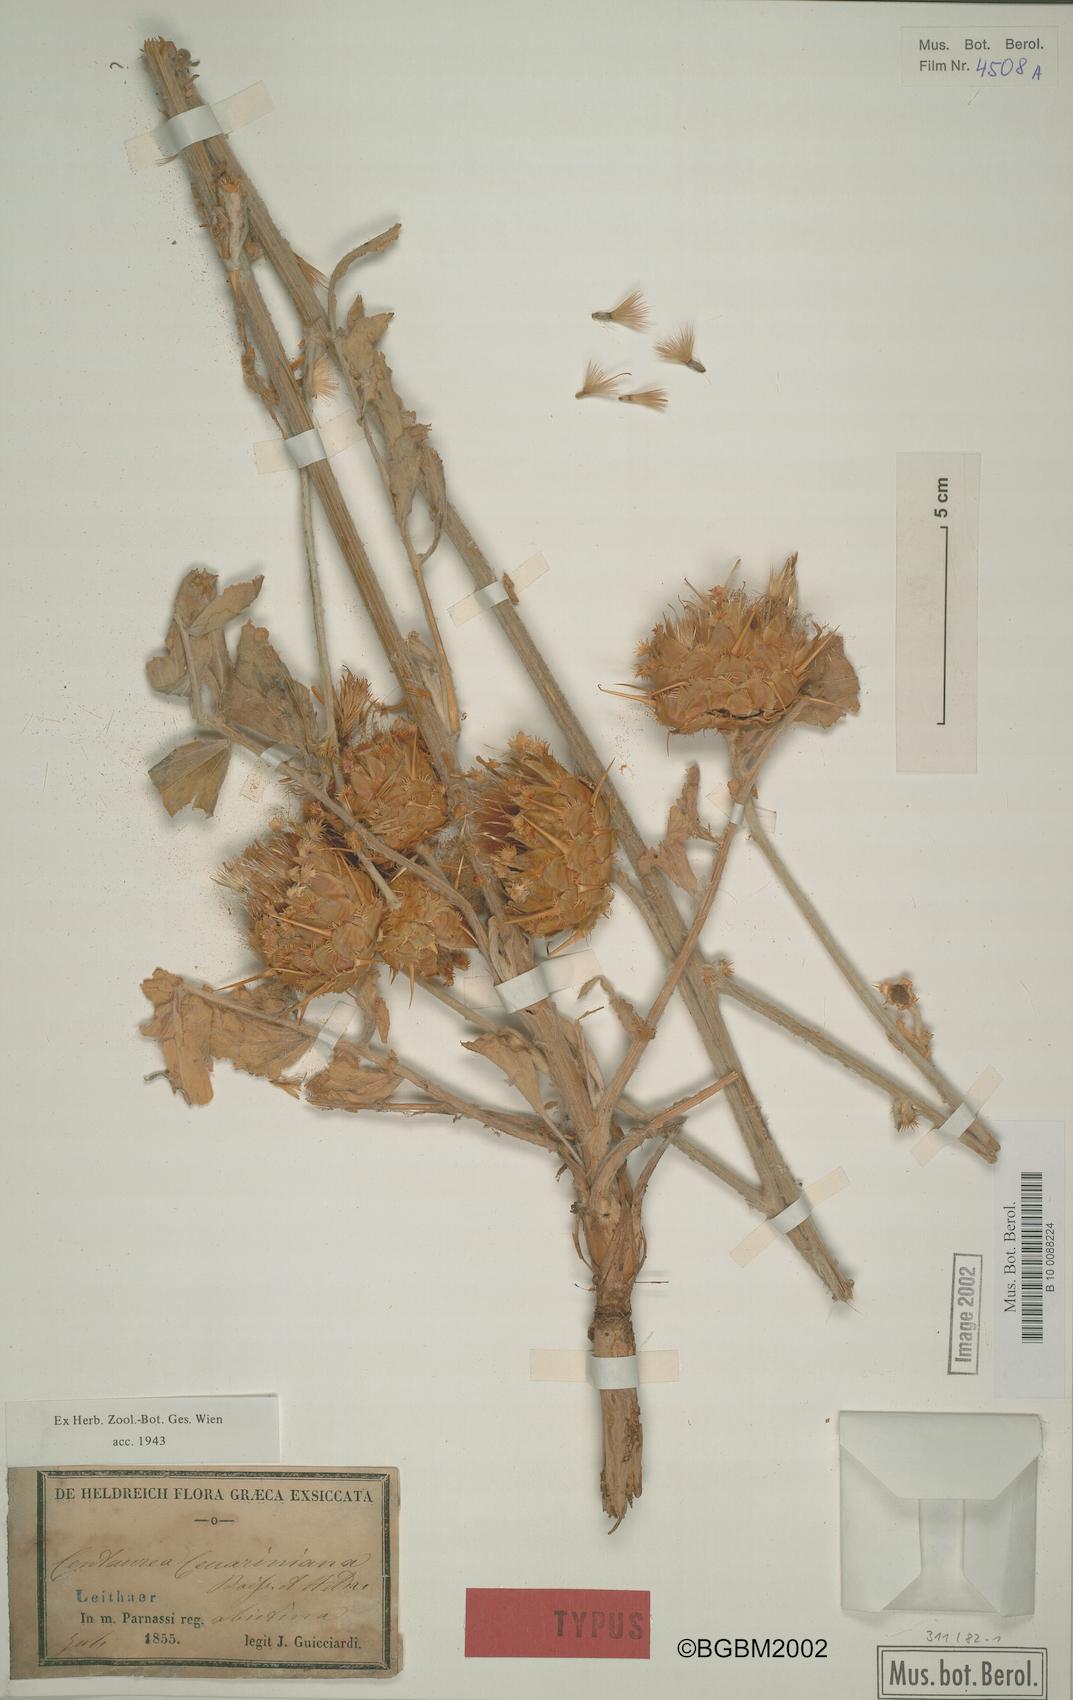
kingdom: Plantae
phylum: Tracheophyta
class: Magnoliopsida
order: Asterales
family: Asteraceae
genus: Centaurea
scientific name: Centaurea graeca
